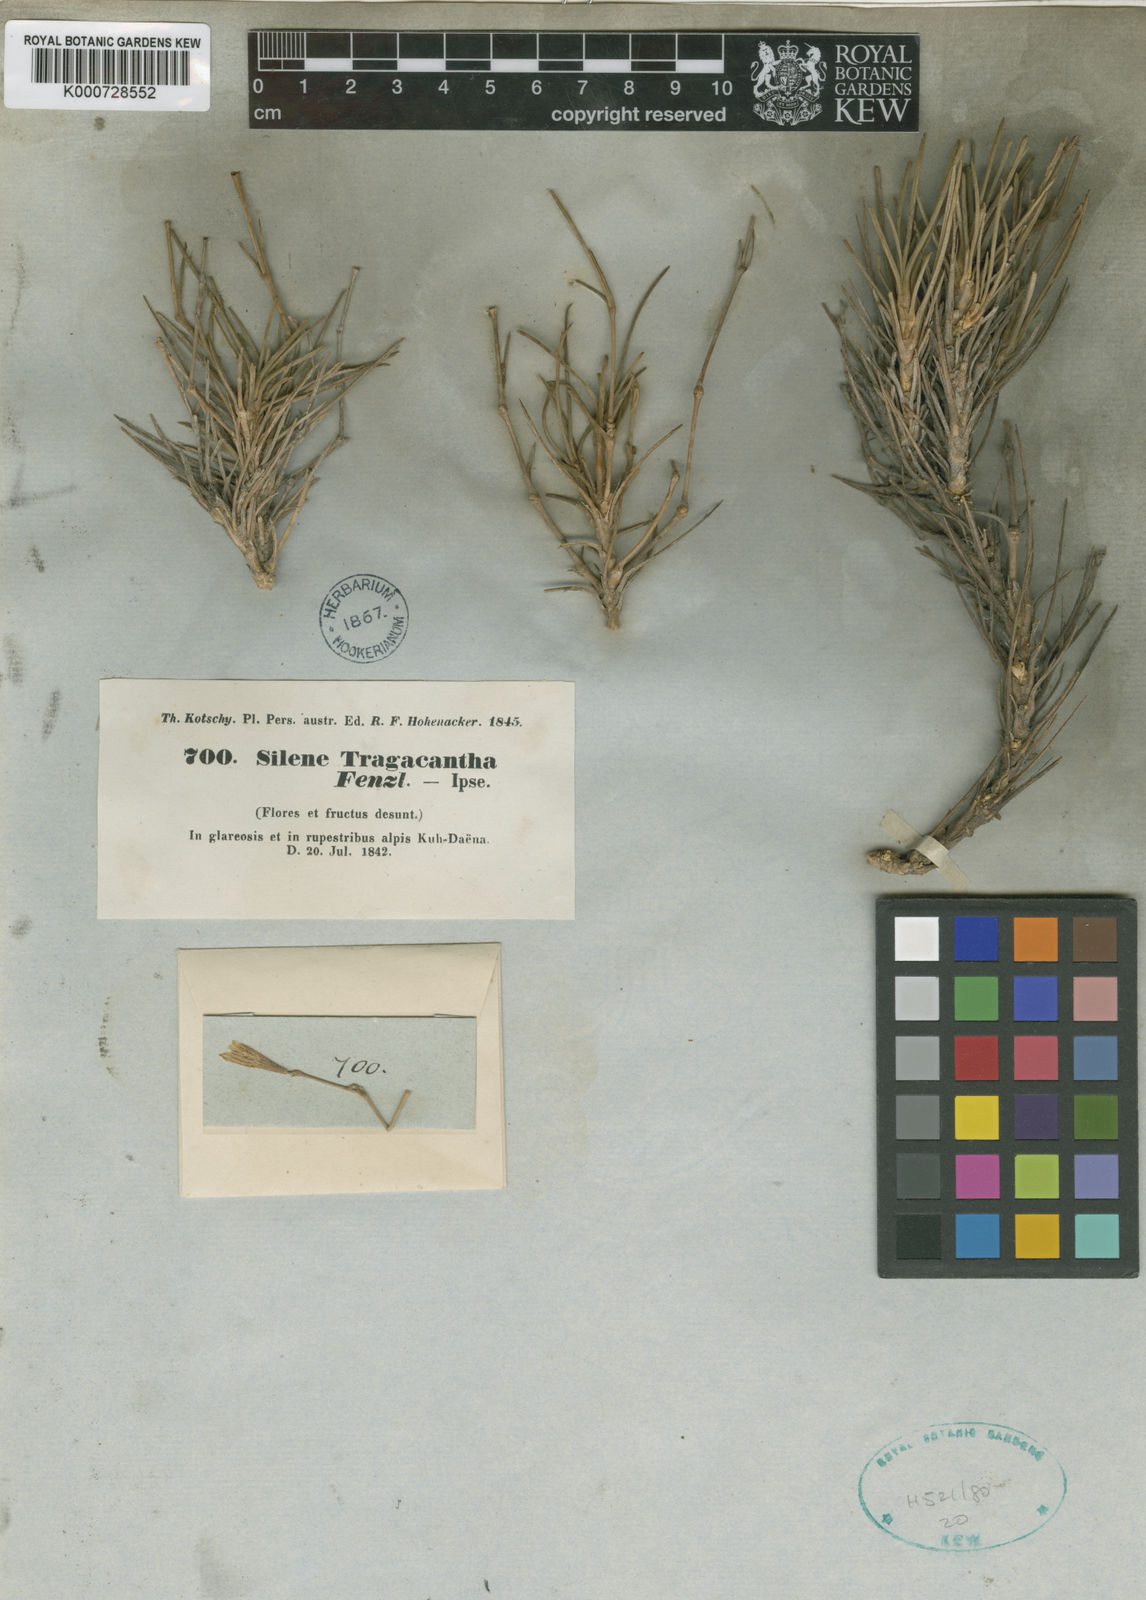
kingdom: Plantae
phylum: Tracheophyta
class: Magnoliopsida
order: Caryophyllales
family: Caryophyllaceae
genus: Silene
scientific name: Silene tragacantha
